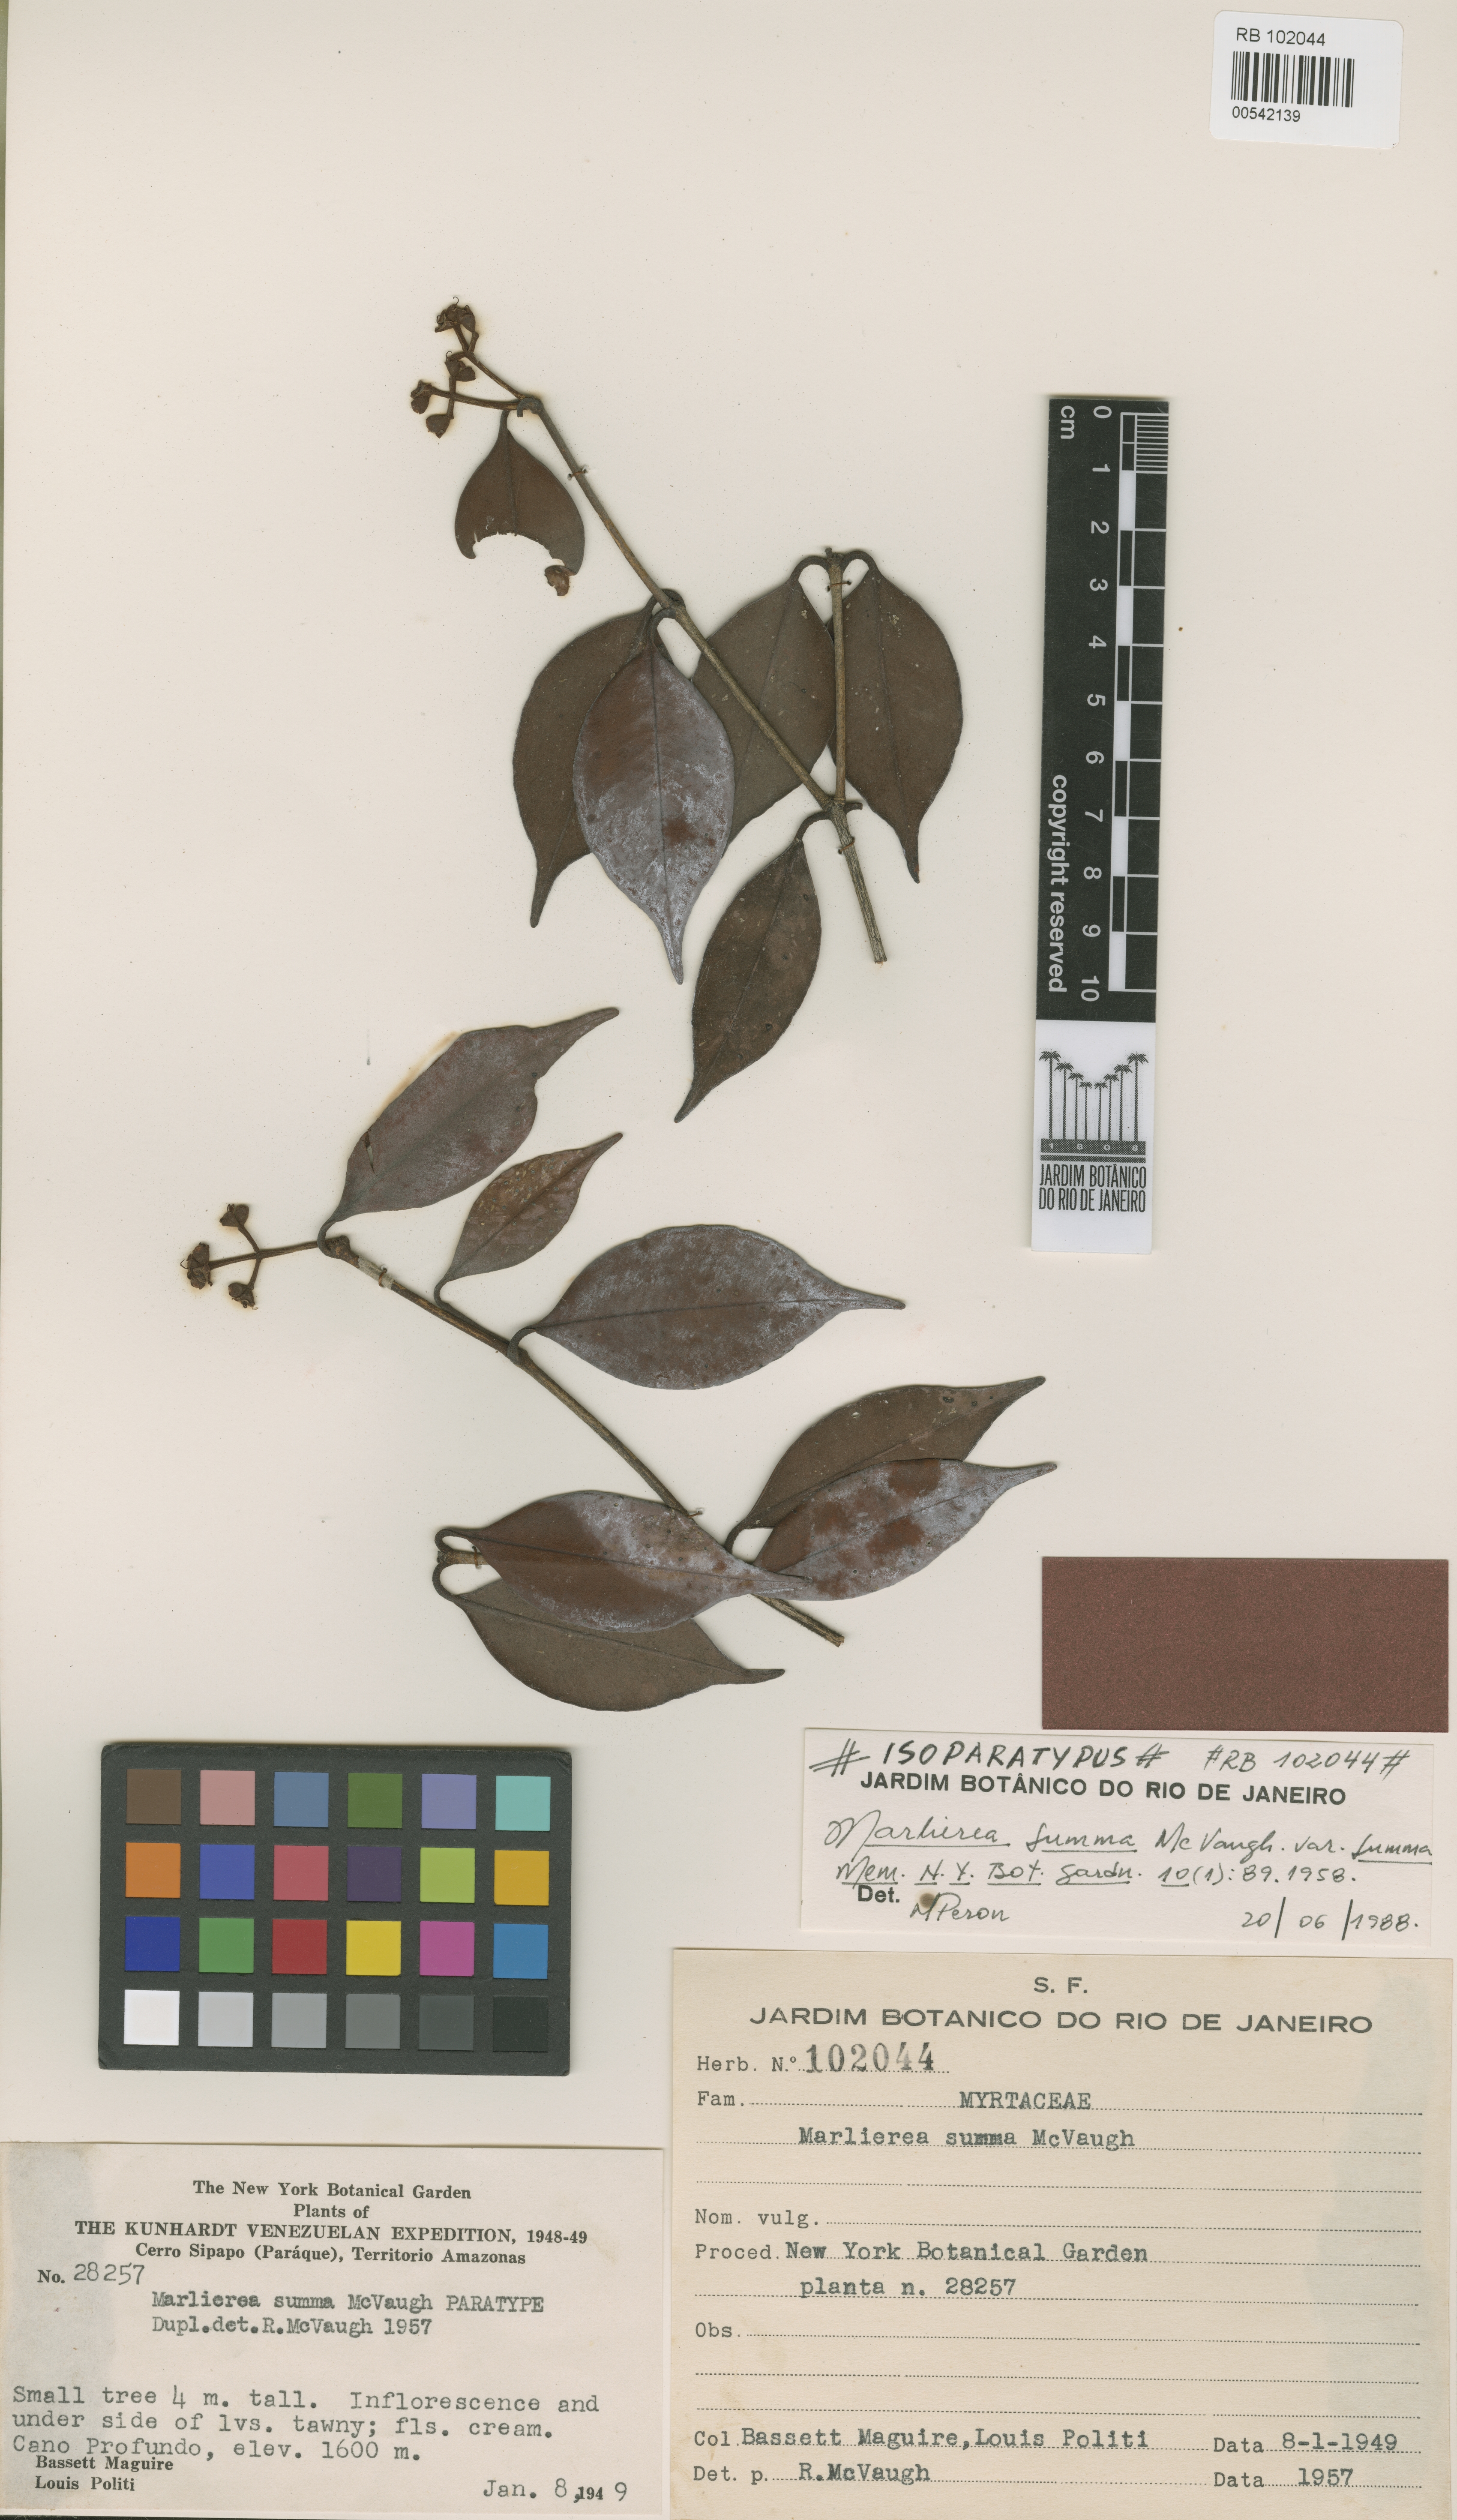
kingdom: Plantae
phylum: Tracheophyta
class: Magnoliopsida
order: Myrtales
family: Myrtaceae
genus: Myrcia
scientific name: Myrcia summa
